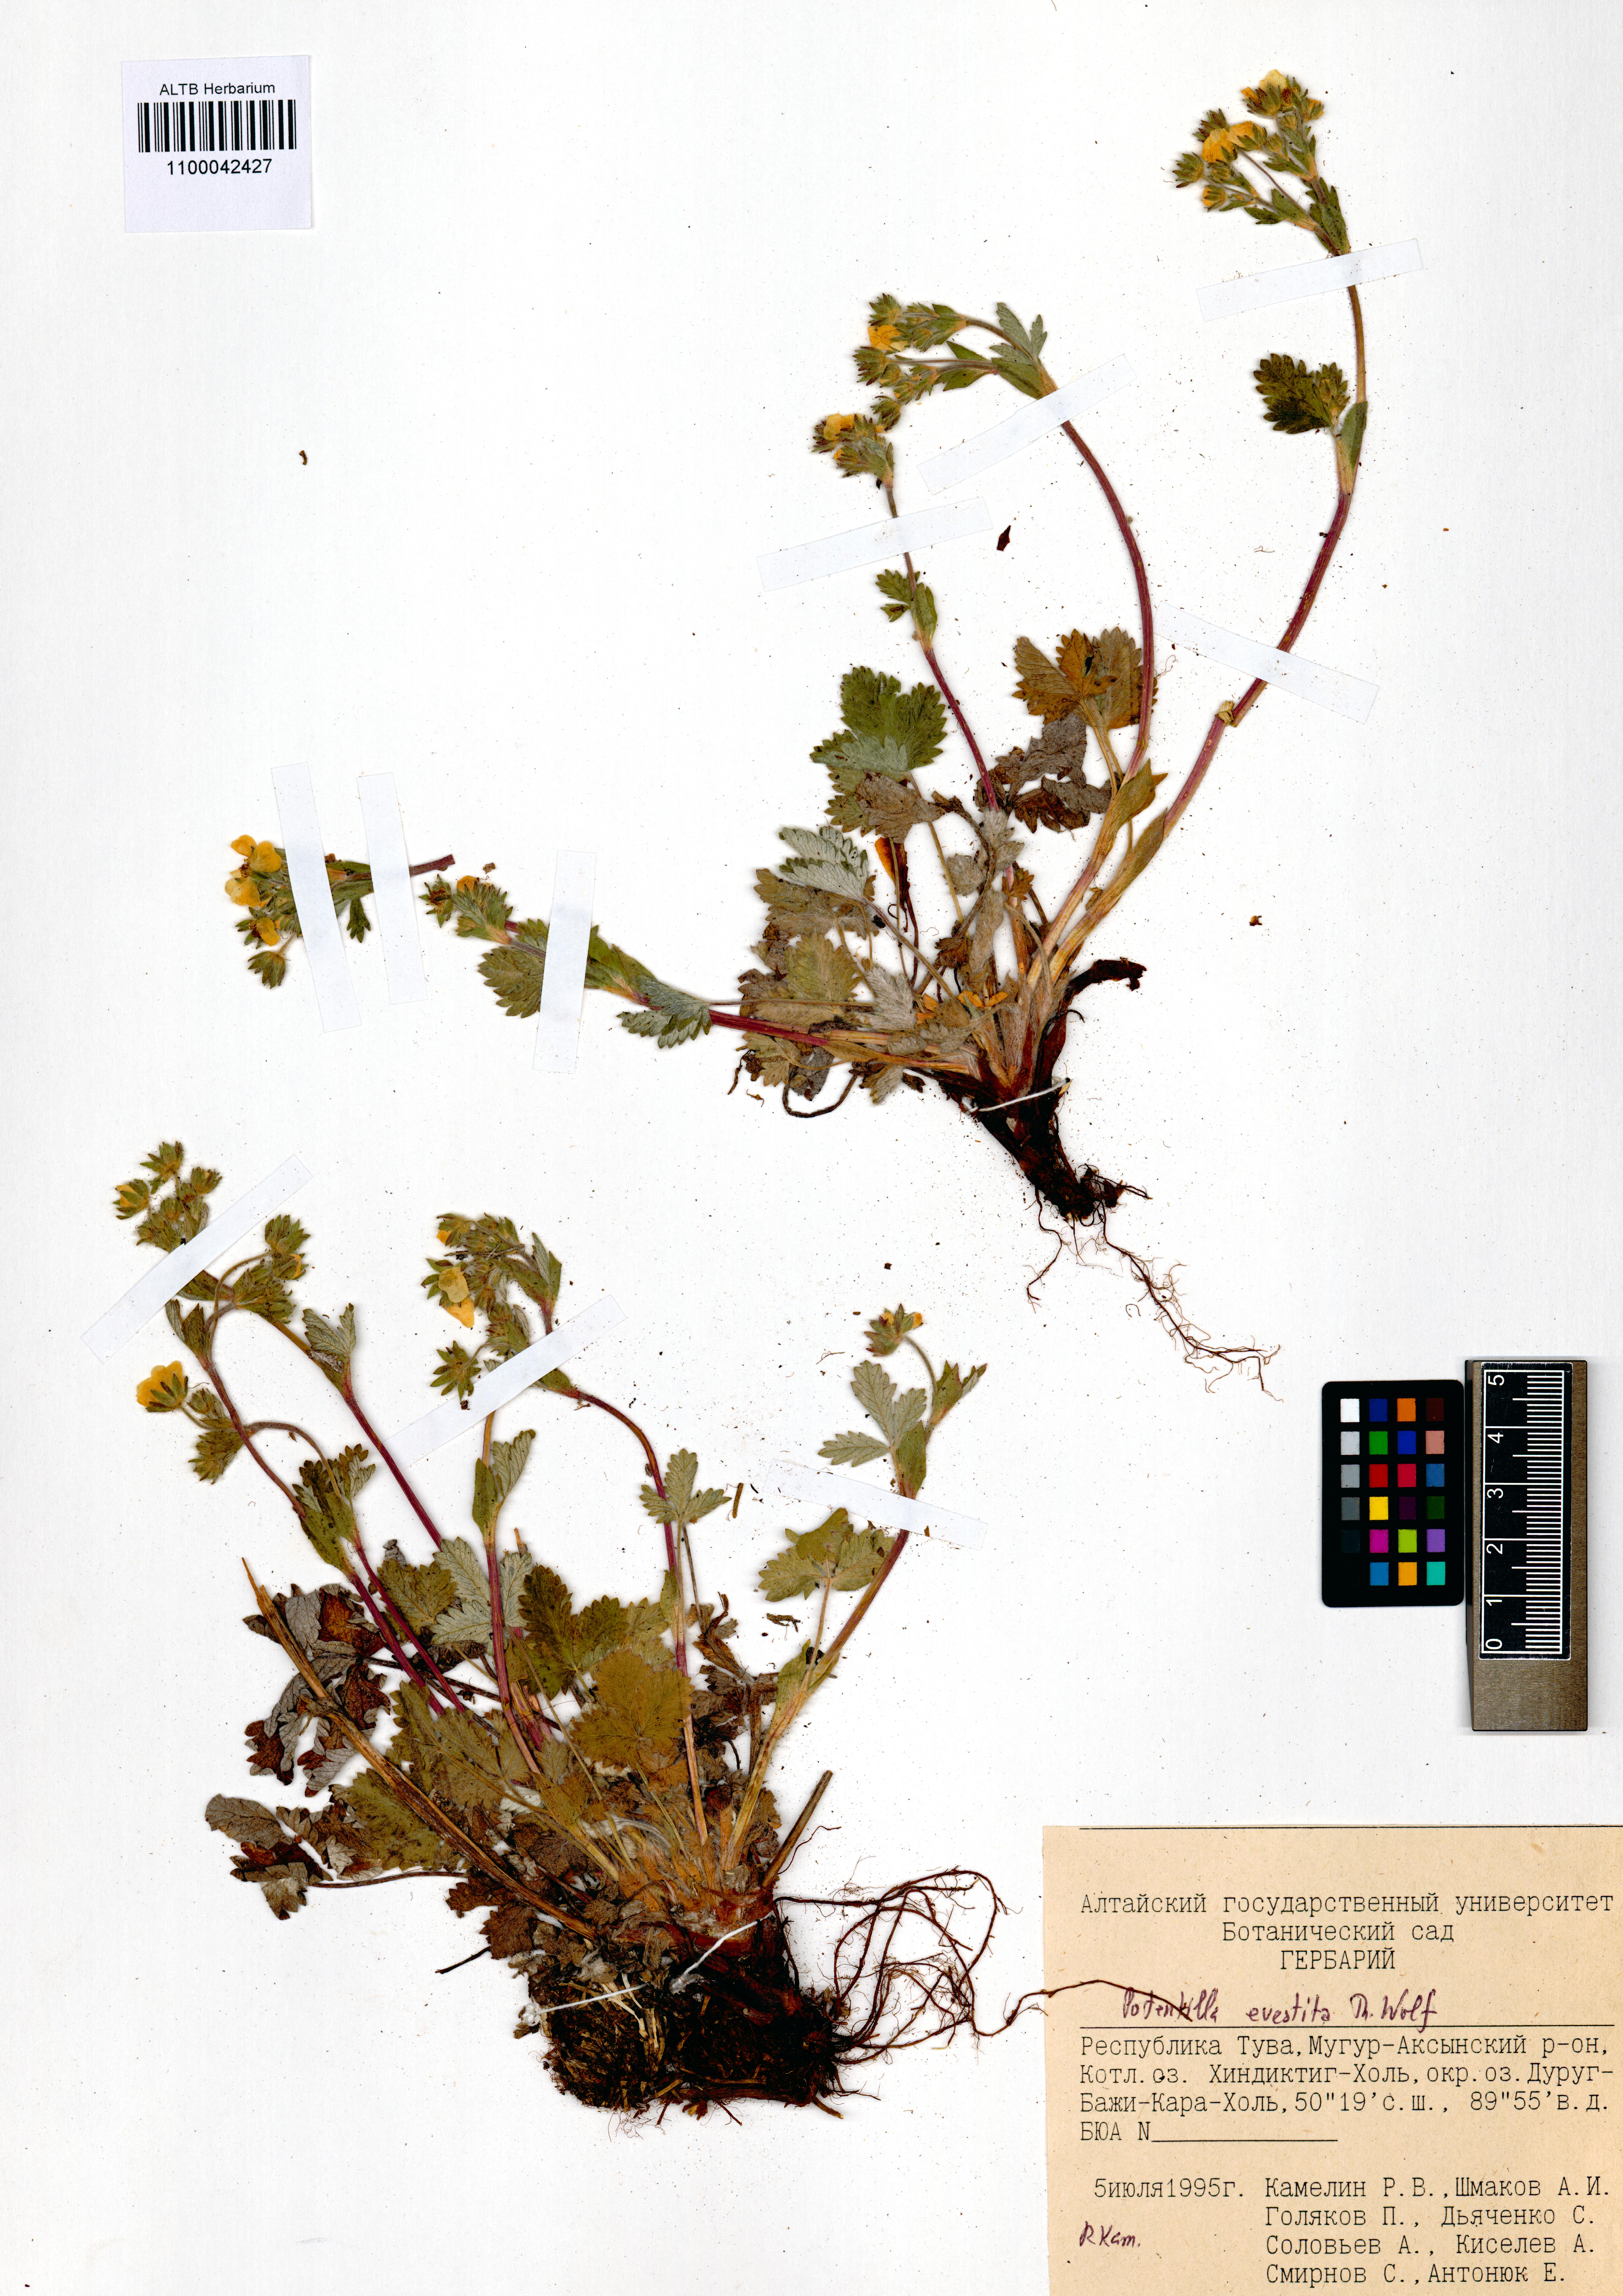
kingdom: Plantae
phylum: Tracheophyta
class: Magnoliopsida
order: Rosales
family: Rosaceae
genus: Potentilla
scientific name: Potentilla evestita
